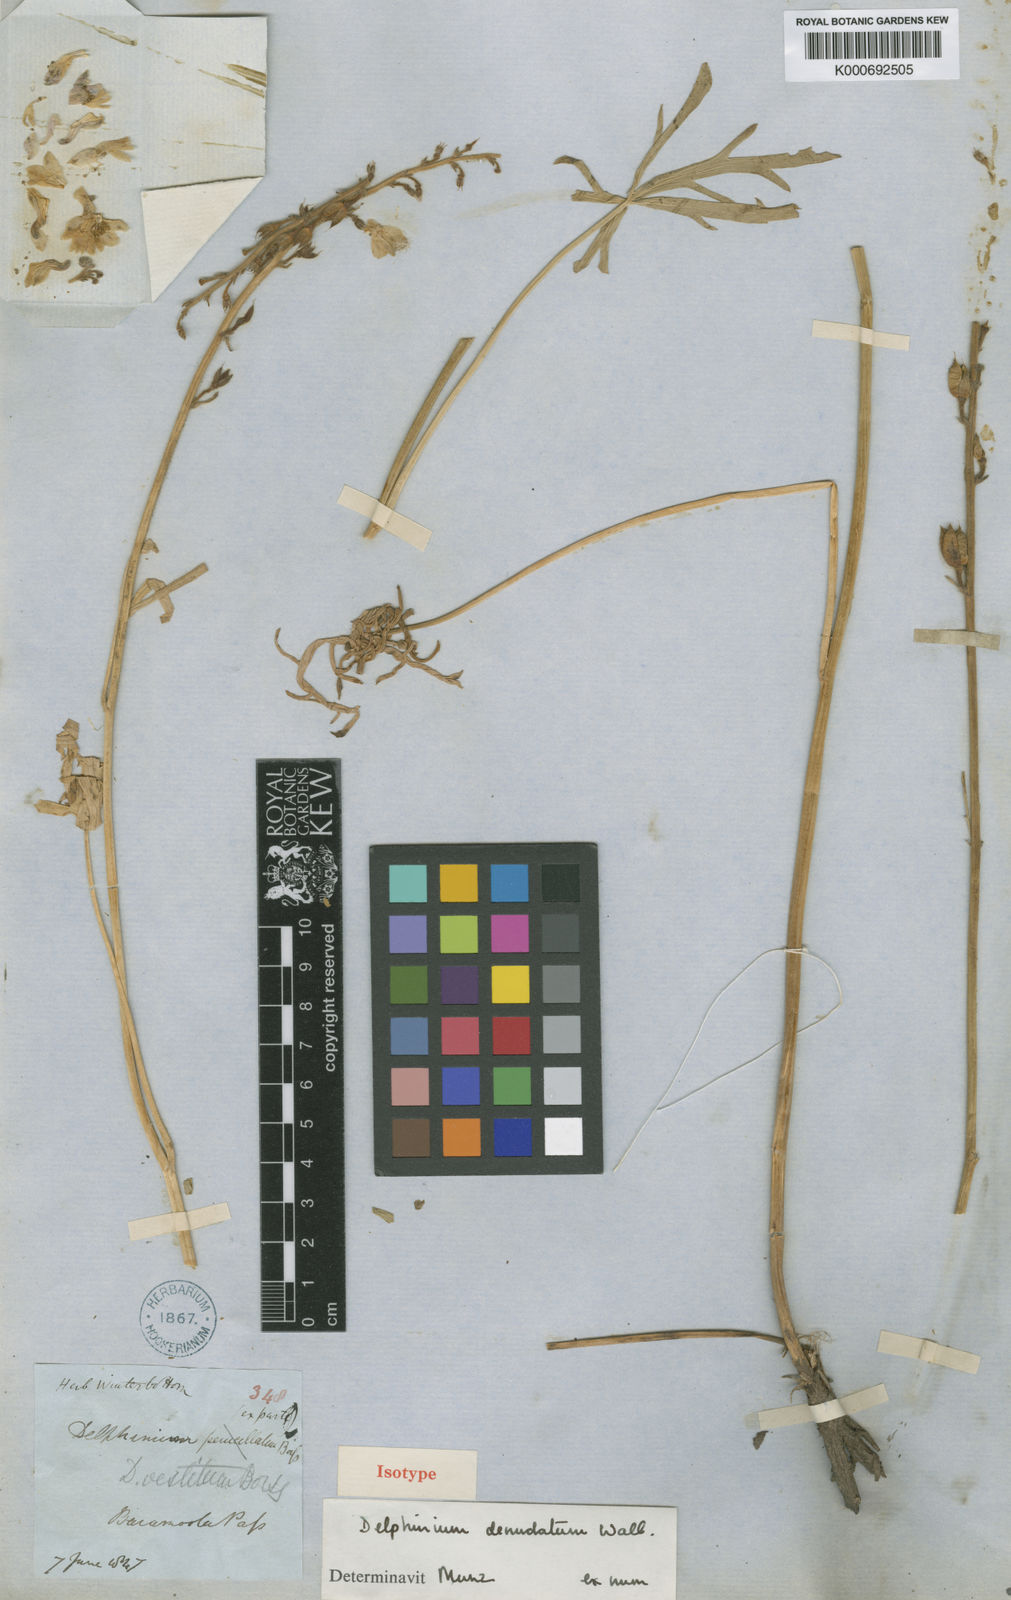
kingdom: Plantae
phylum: Tracheophyta
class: Magnoliopsida
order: Ranunculales
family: Ranunculaceae
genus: Delphinium
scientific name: Delphinium
